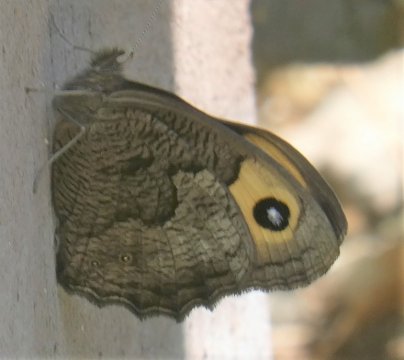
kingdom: Animalia
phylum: Arthropoda
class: Insecta
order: Lepidoptera
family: Nymphalidae
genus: Cercyonis
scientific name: Cercyonis pegala
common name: Common Wood-Nymph
